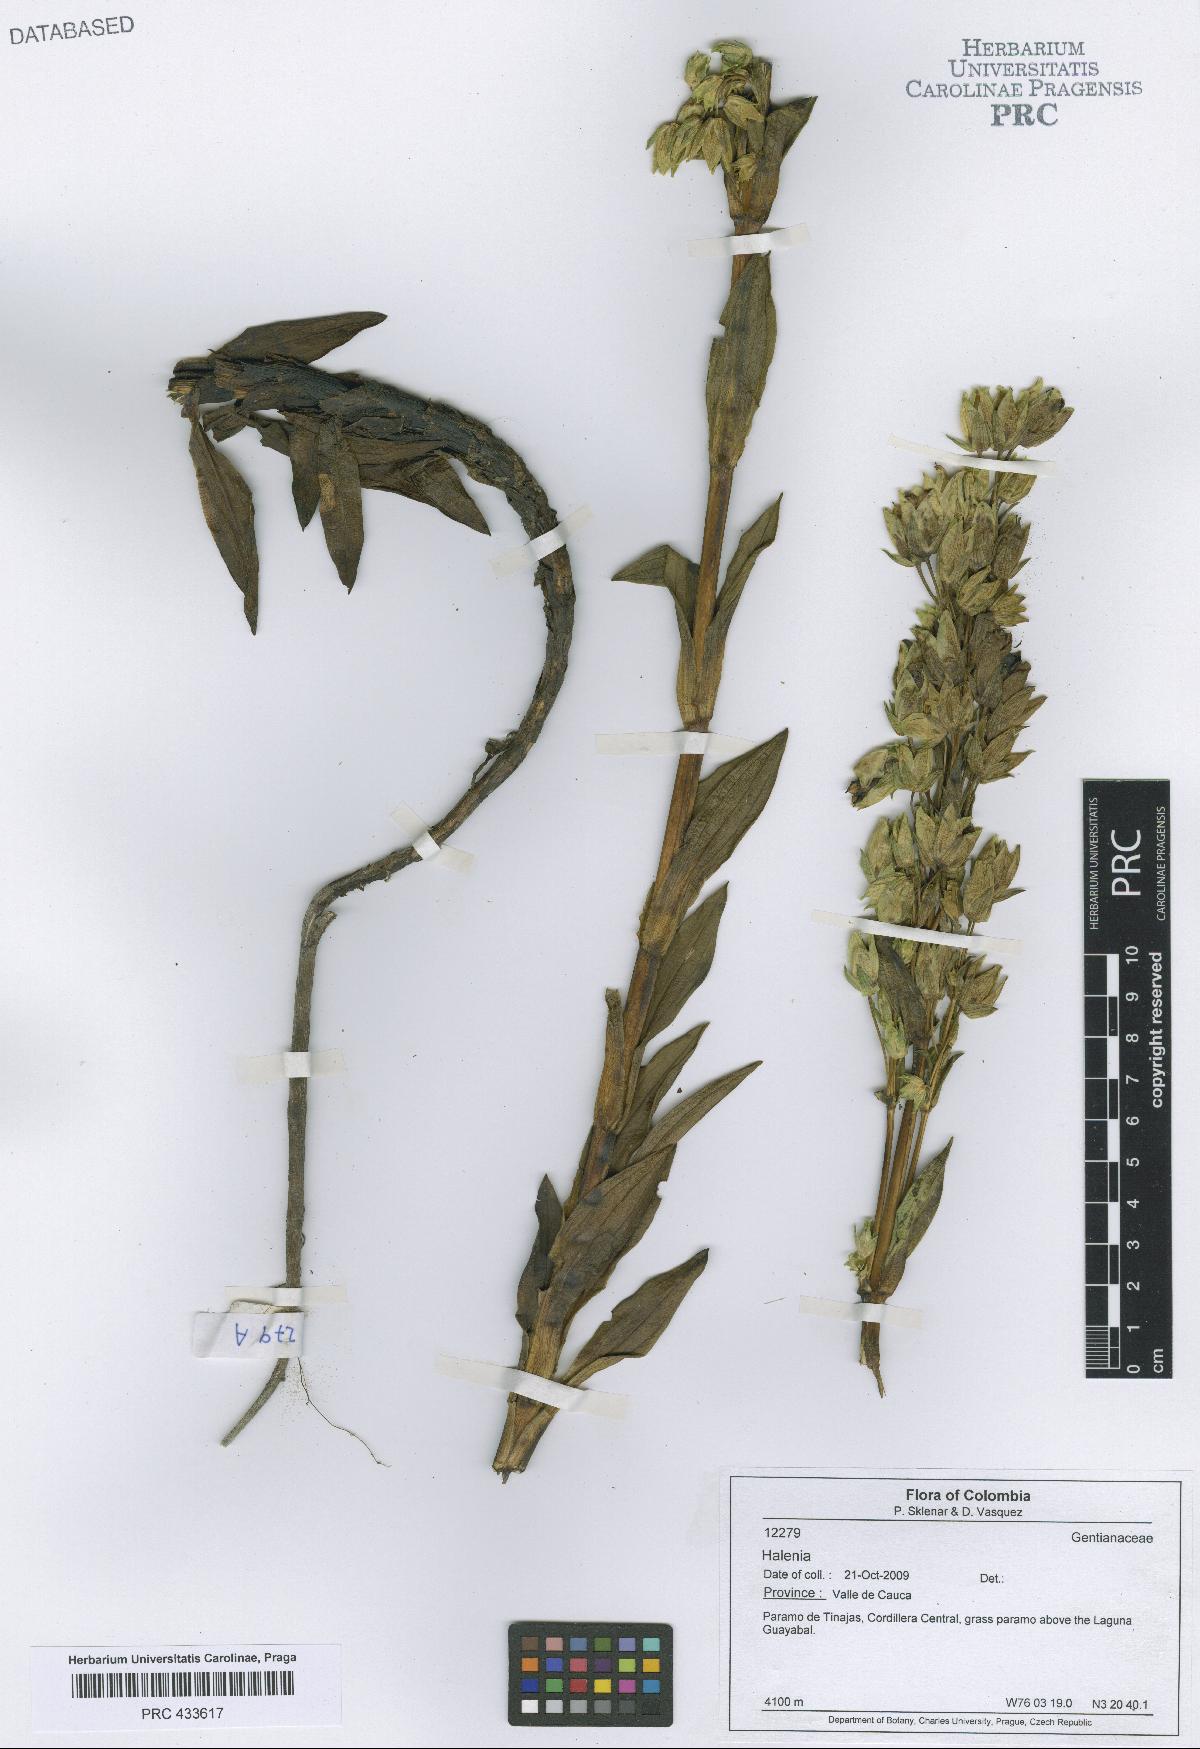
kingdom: Plantae
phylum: Tracheophyta
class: Magnoliopsida
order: Gentianales
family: Gentianaceae
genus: Halenia
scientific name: Halenia
